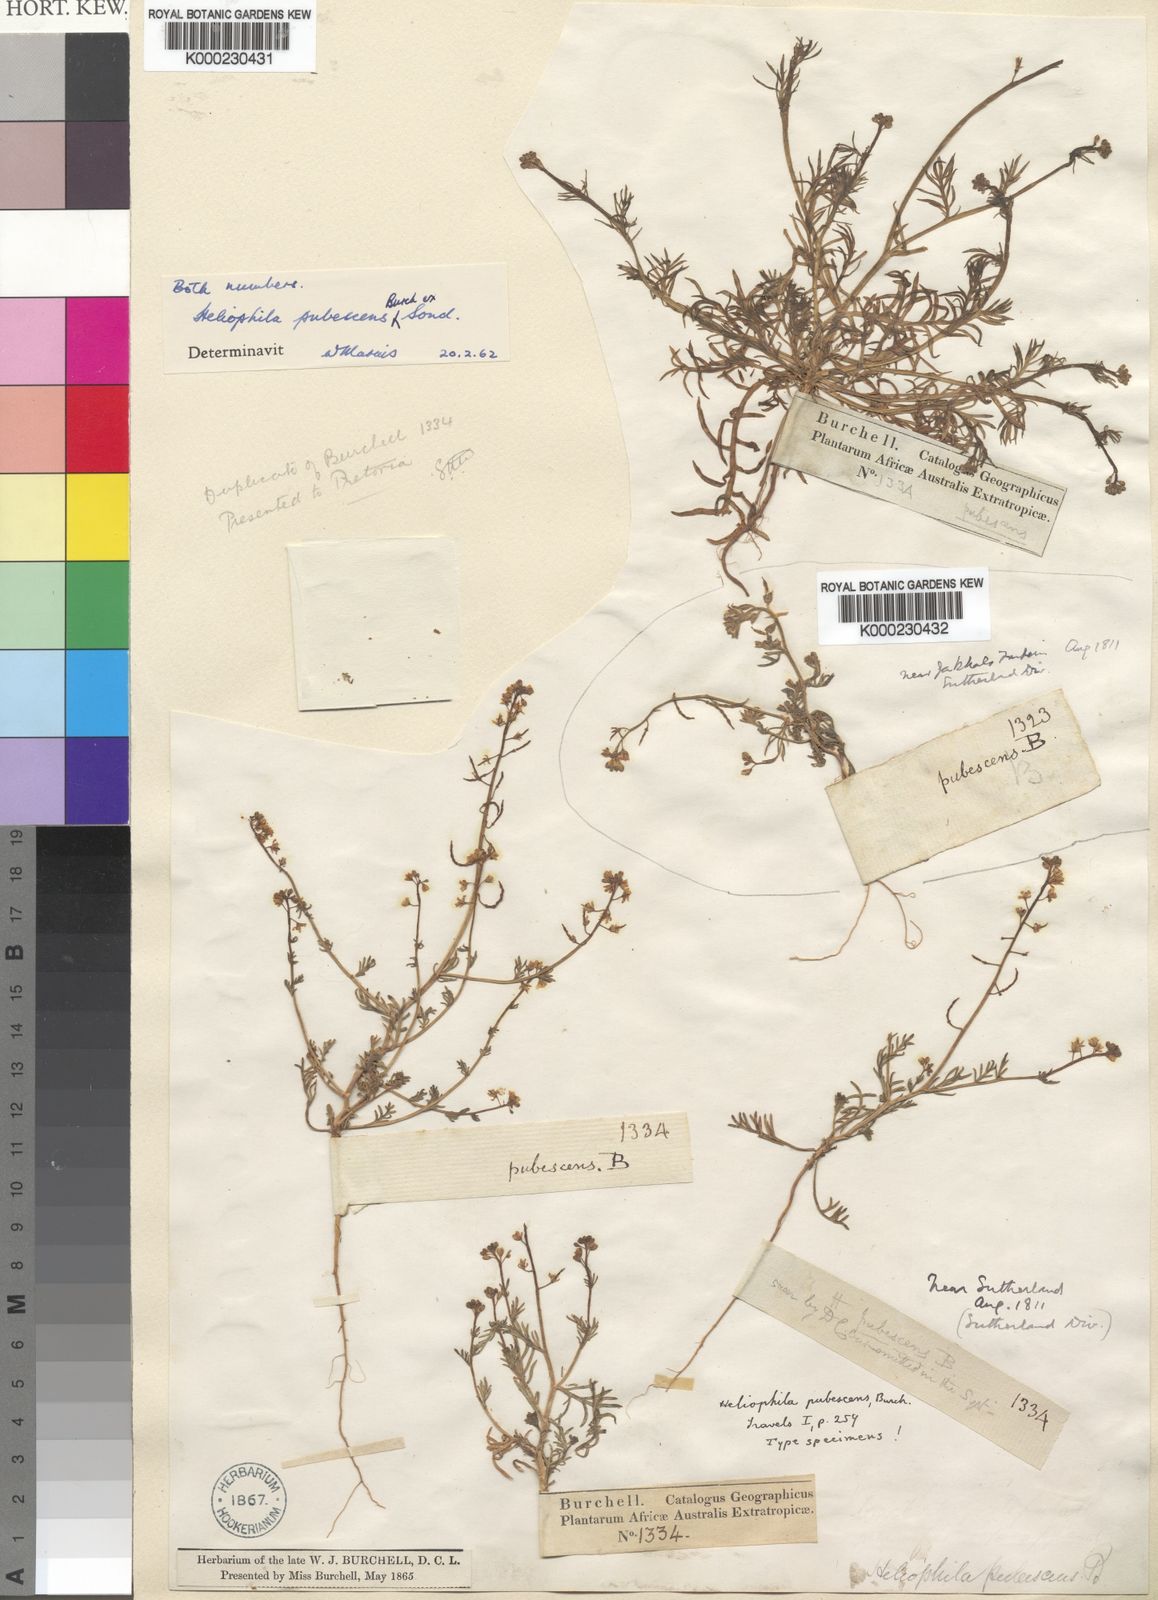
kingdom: Plantae
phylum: Tracheophyta
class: Magnoliopsida
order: Brassicales
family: Brassicaceae
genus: Heliophila
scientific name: Heliophila pubescens
